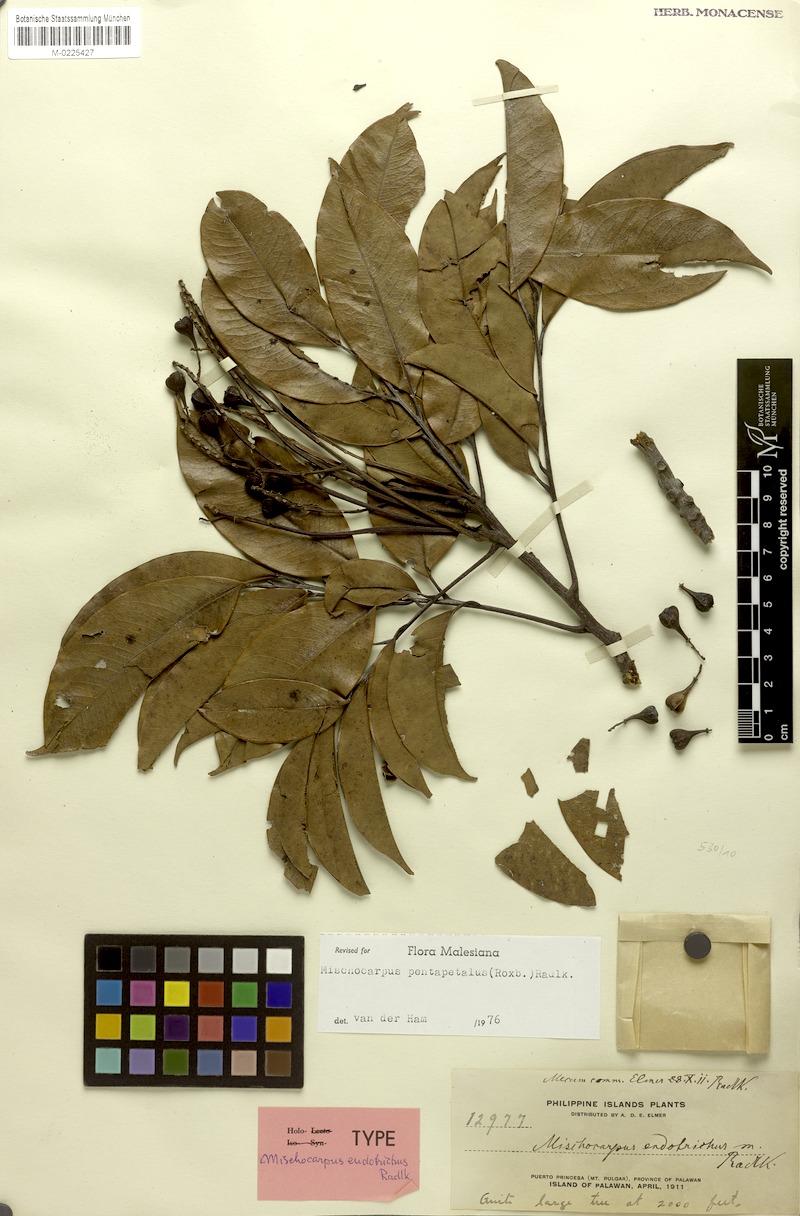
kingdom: Plantae
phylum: Tracheophyta
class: Magnoliopsida
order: Sapindales
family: Sapindaceae
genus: Mischocarpus
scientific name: Mischocarpus pentapetalus
